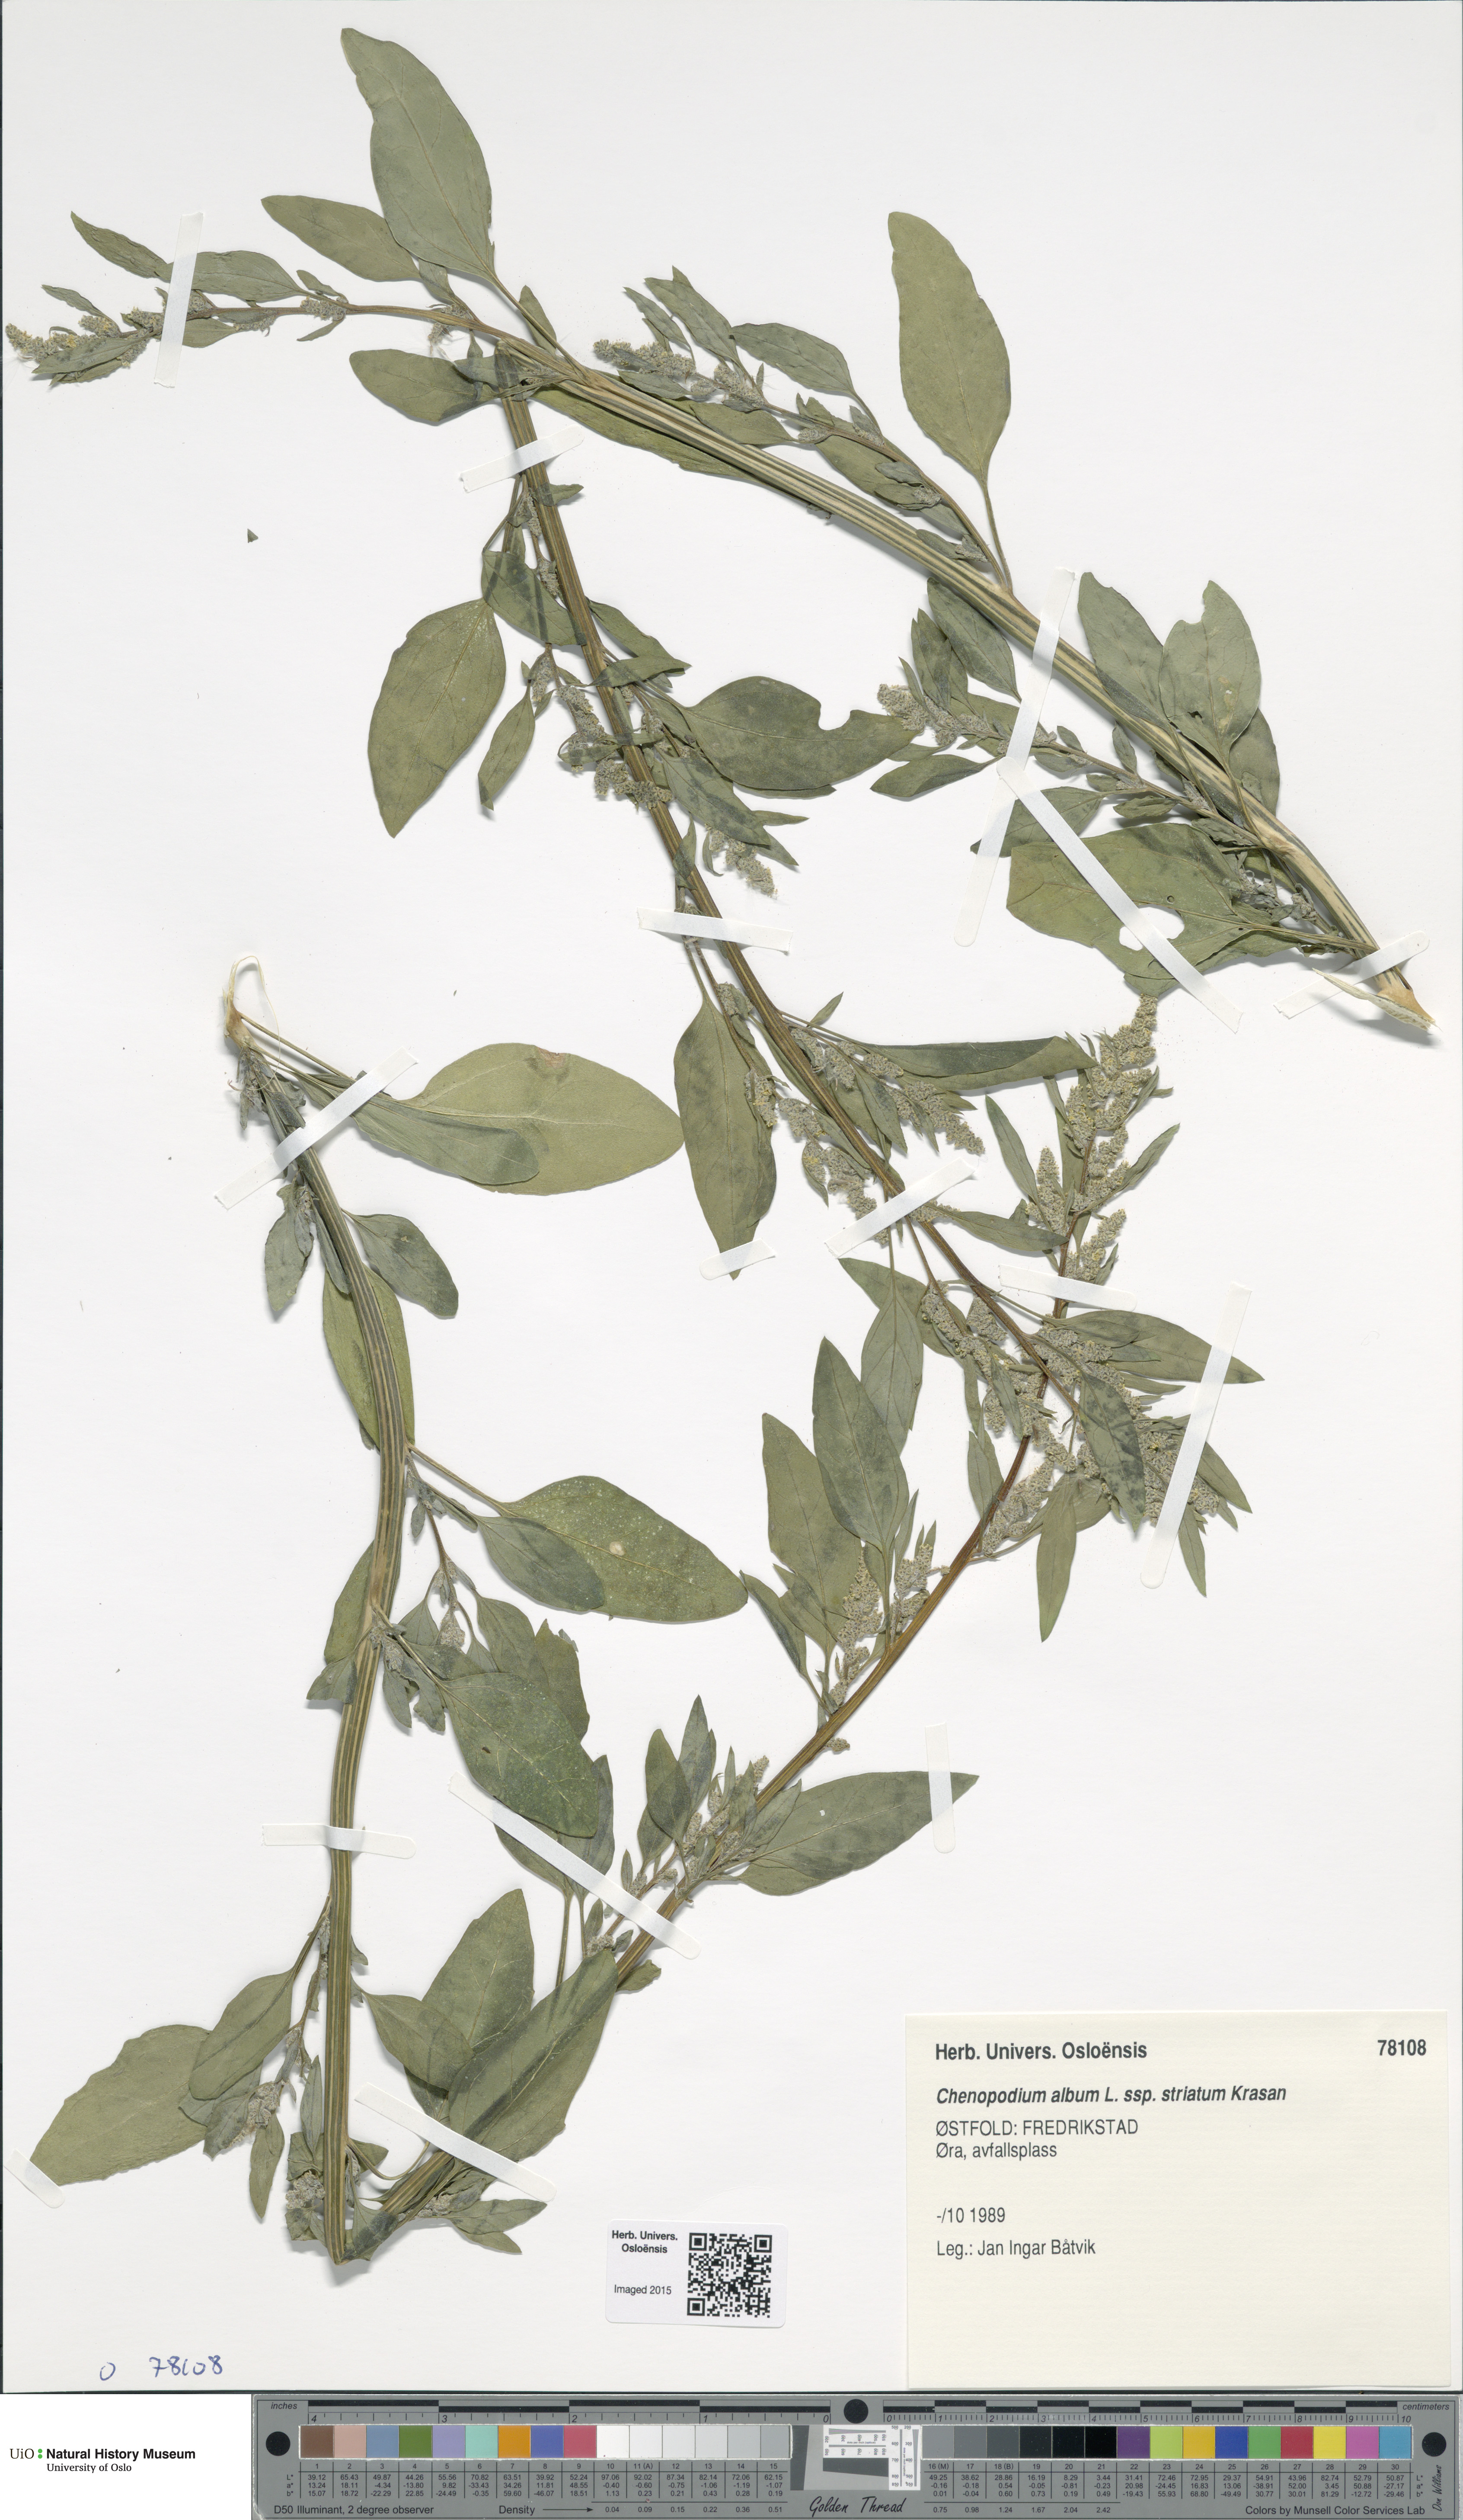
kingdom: Plantae
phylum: Tracheophyta
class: Magnoliopsida
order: Caryophyllales
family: Amaranthaceae
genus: Chenopodium
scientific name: Chenopodium striatiforme
